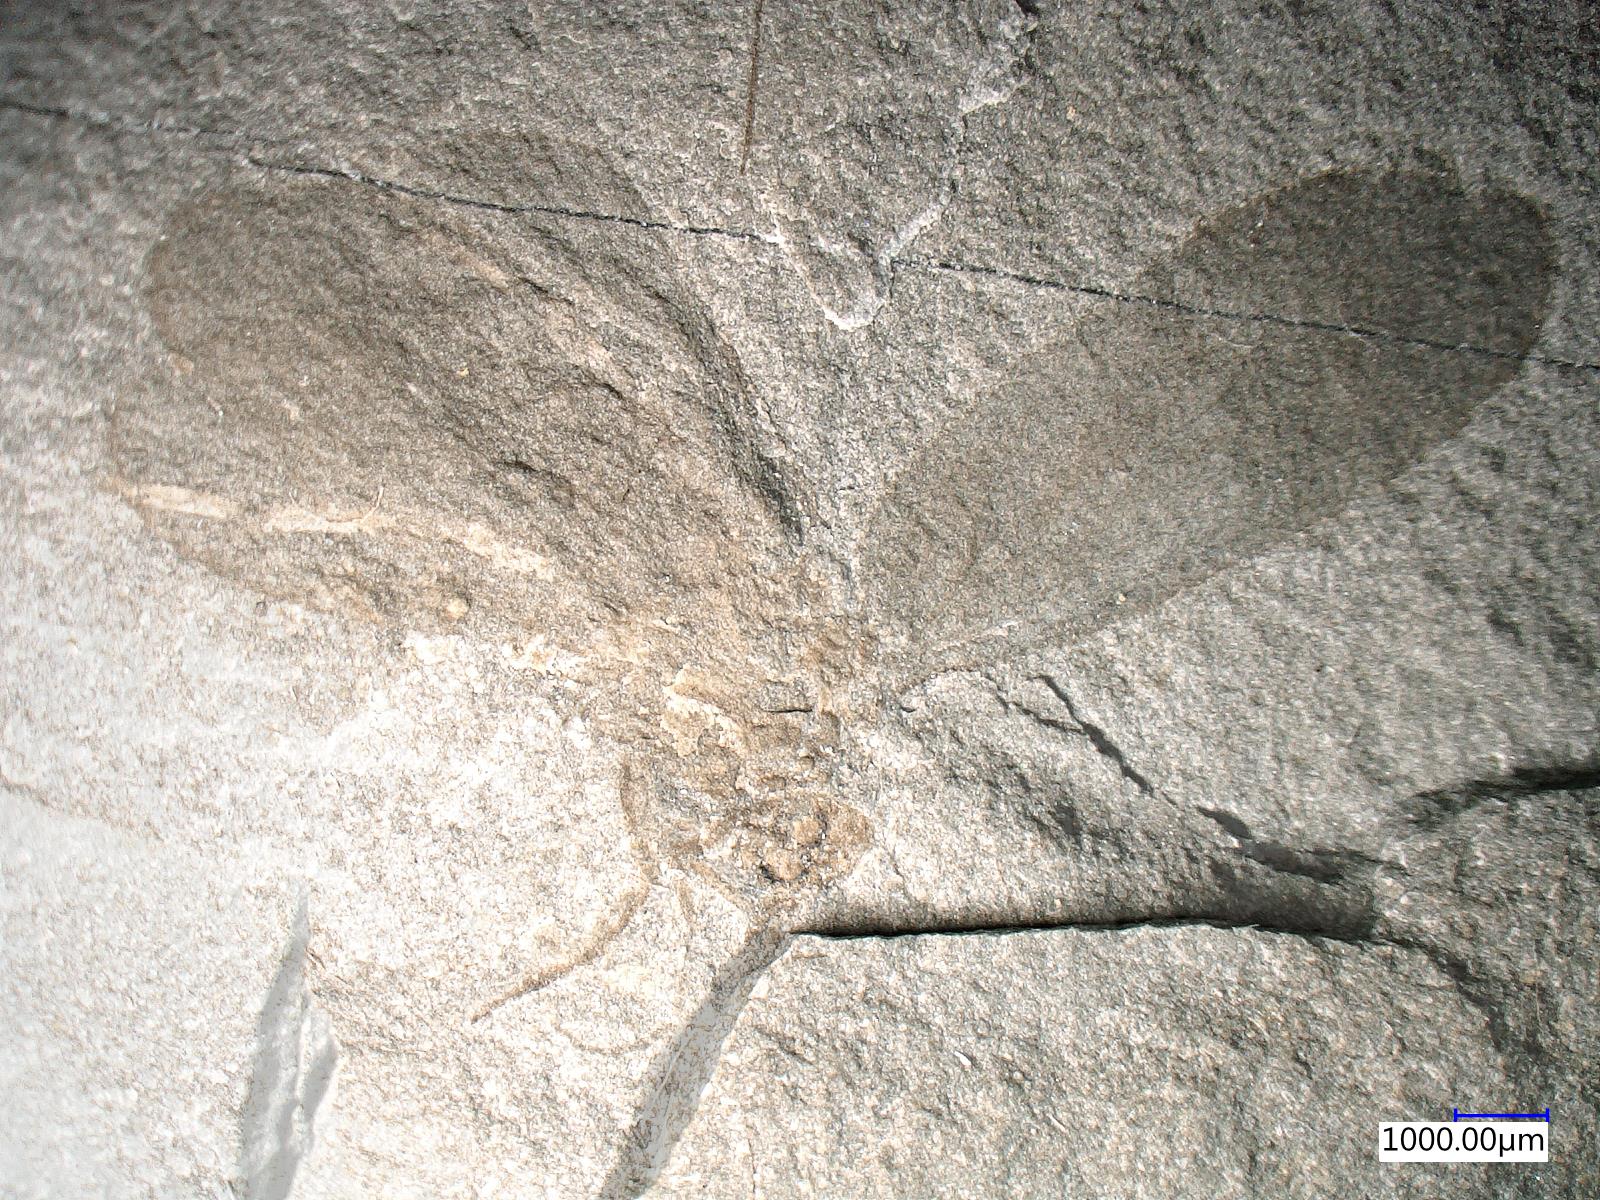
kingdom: Animalia
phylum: Arthropoda
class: Insecta
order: Lepidoptera
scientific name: Lepidoptera
